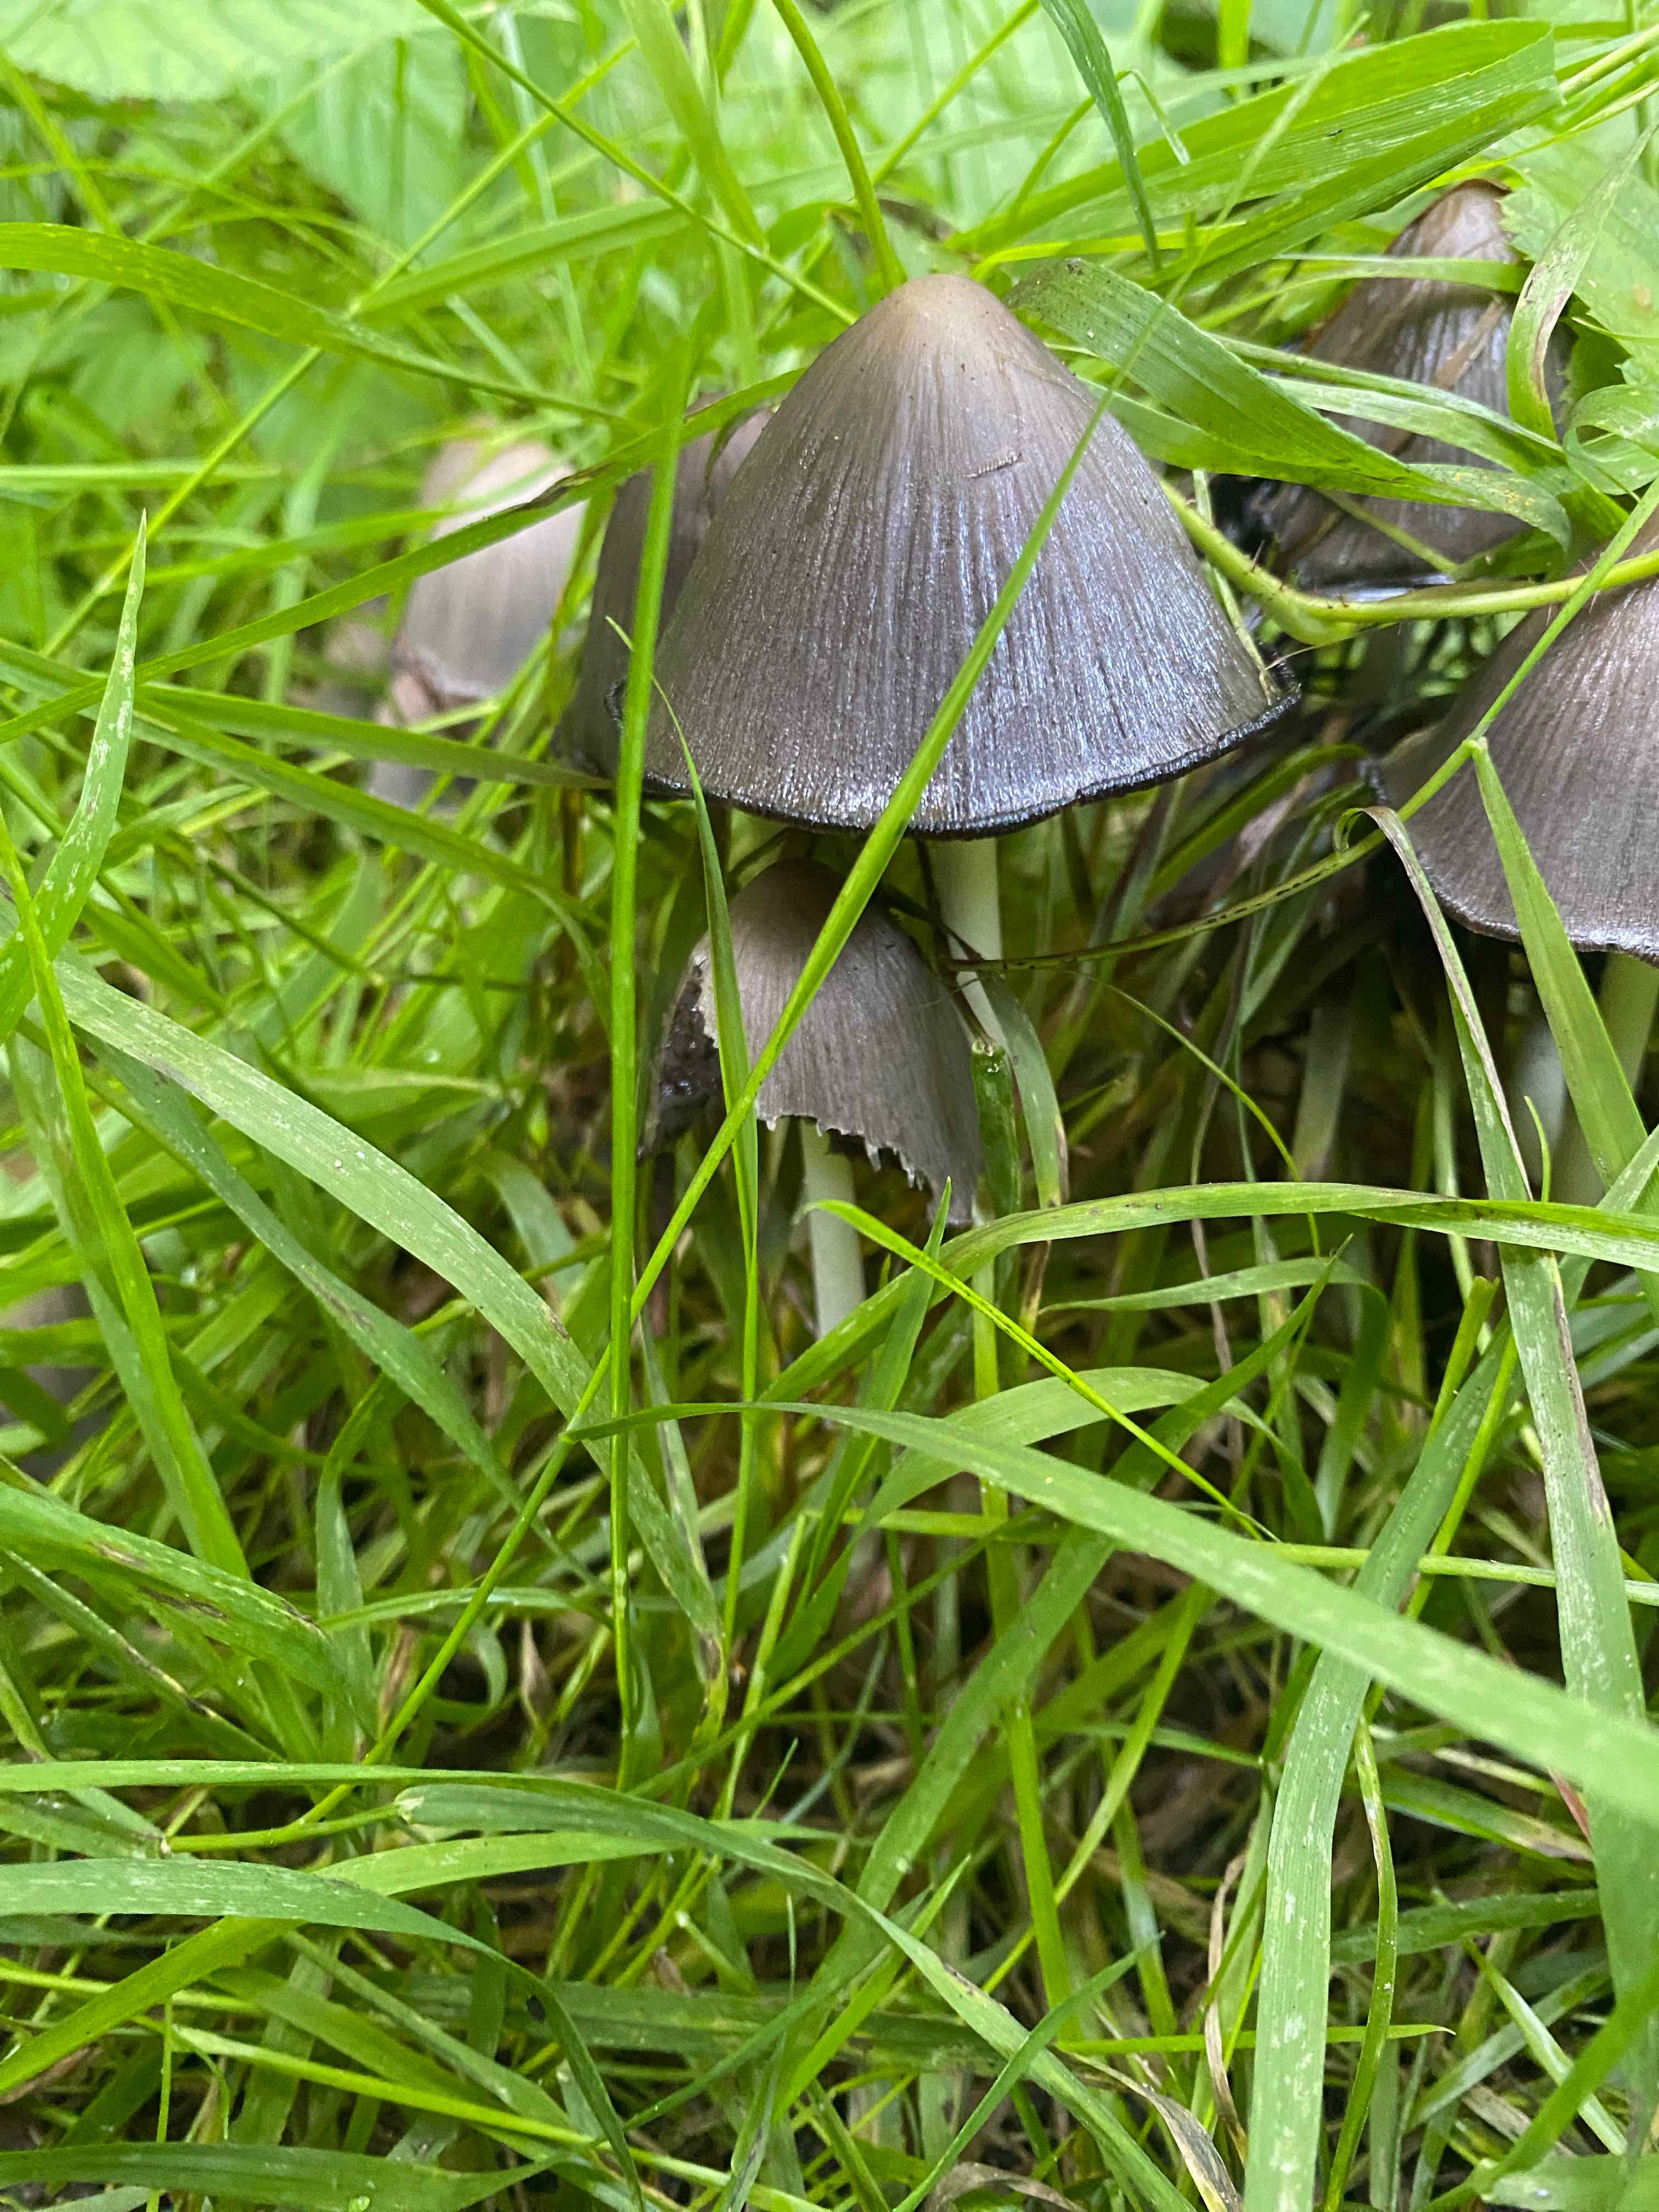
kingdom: Fungi
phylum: Basidiomycota
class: Agaricomycetes
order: Agaricales
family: Psathyrellaceae
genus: Coprinopsis
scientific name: Coprinopsis
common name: blækhat
